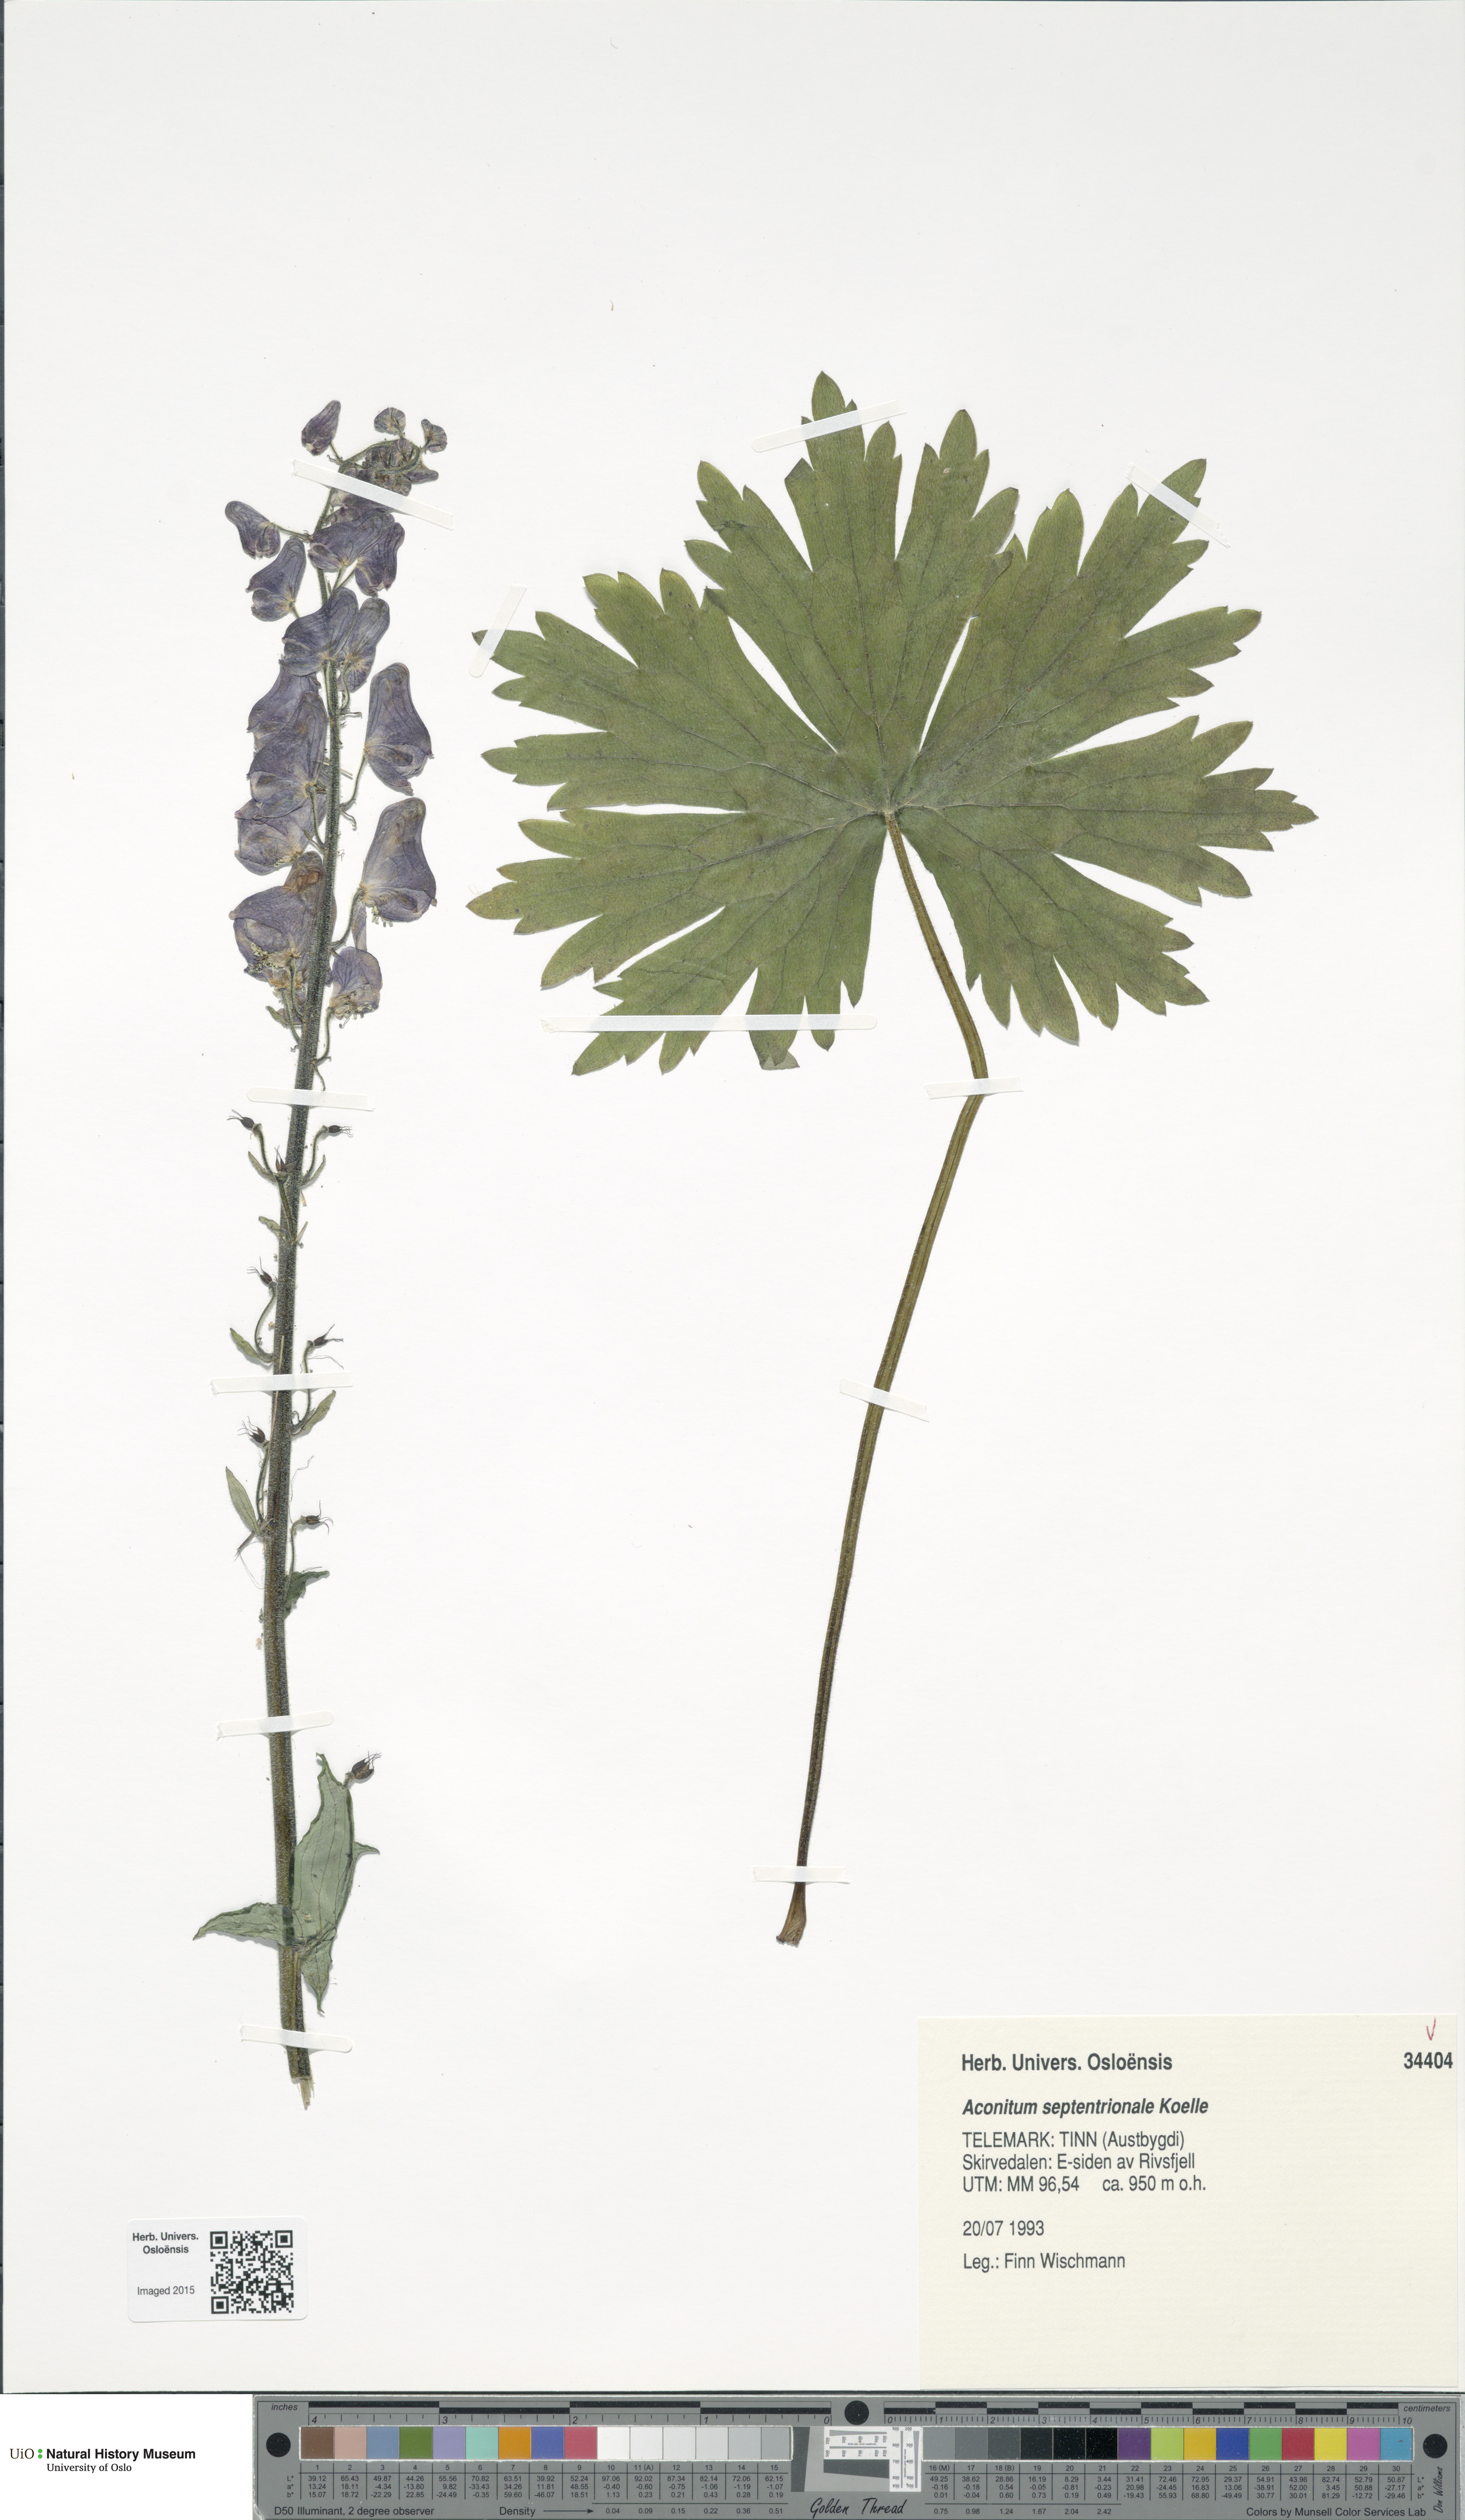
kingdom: Plantae
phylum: Tracheophyta
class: Magnoliopsida
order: Ranunculales
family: Ranunculaceae
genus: Aconitum
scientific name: Aconitum septentrionale
